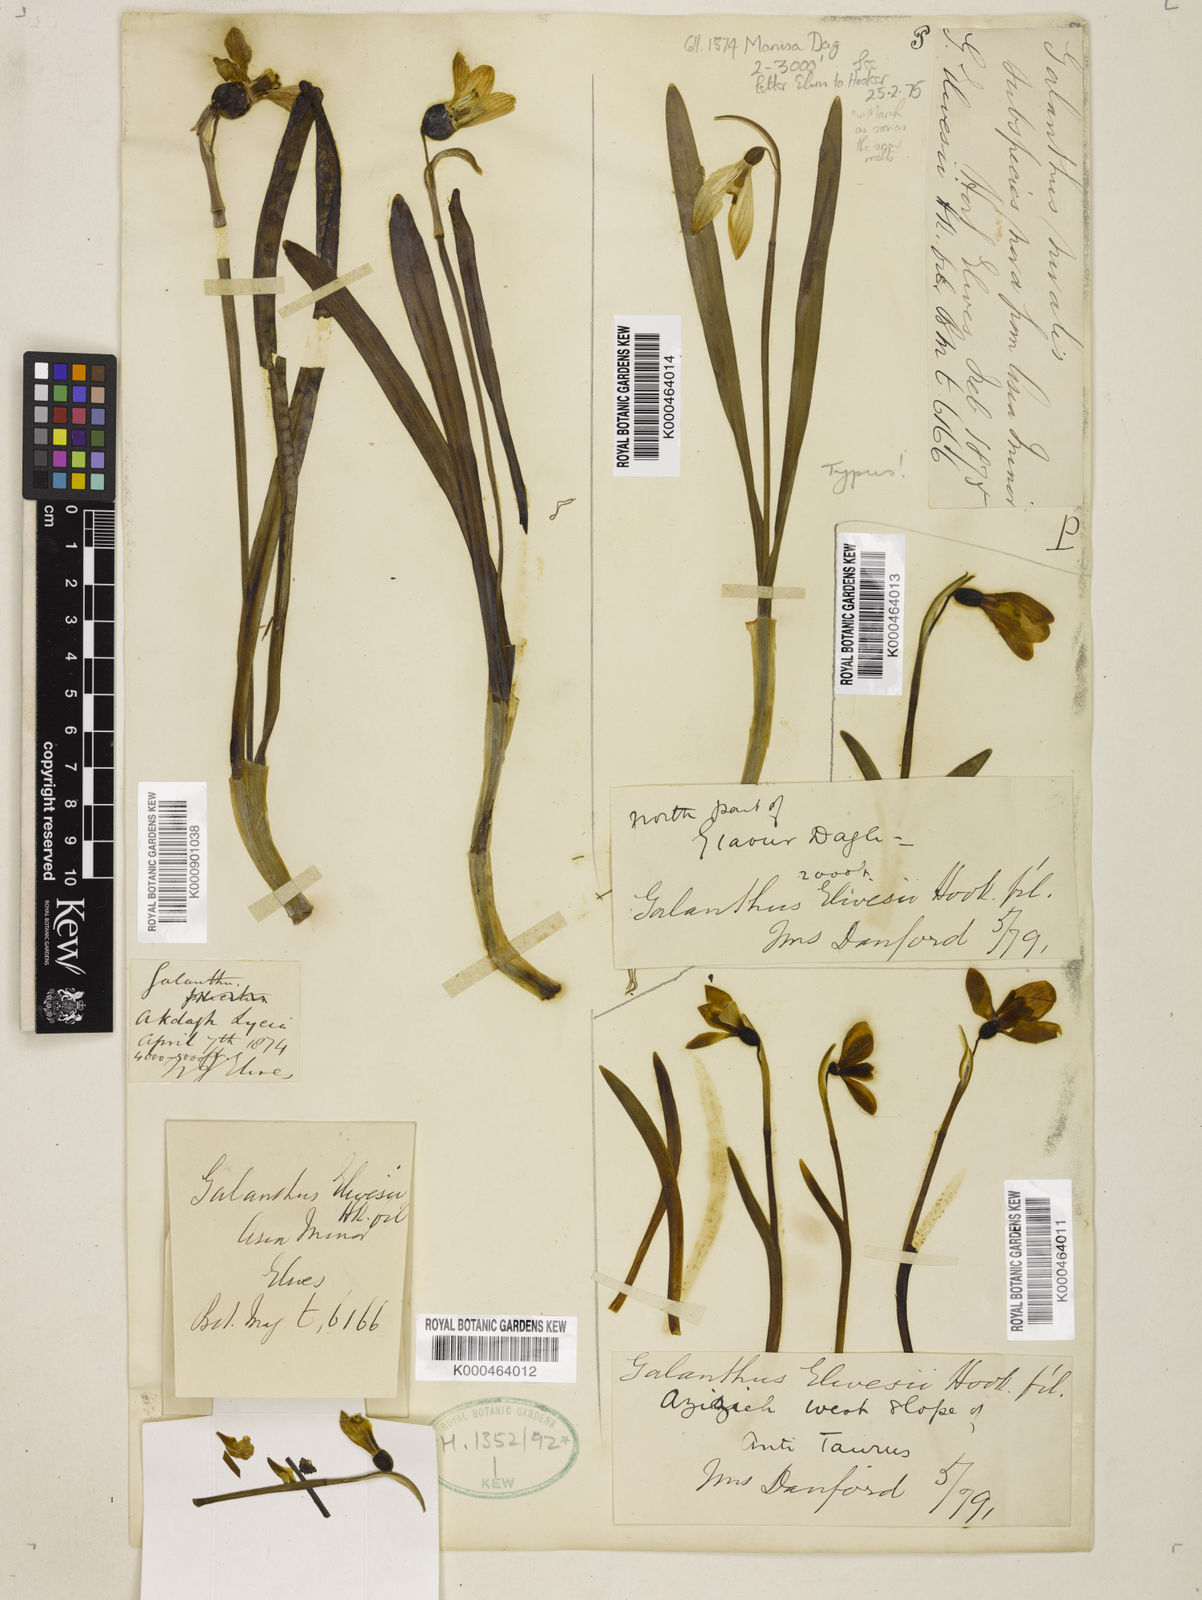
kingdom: Plantae
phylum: Tracheophyta
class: Liliopsida
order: Asparagales
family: Amaryllidaceae
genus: Galanthus
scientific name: Galanthus elwesii
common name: Greater snowdrop
